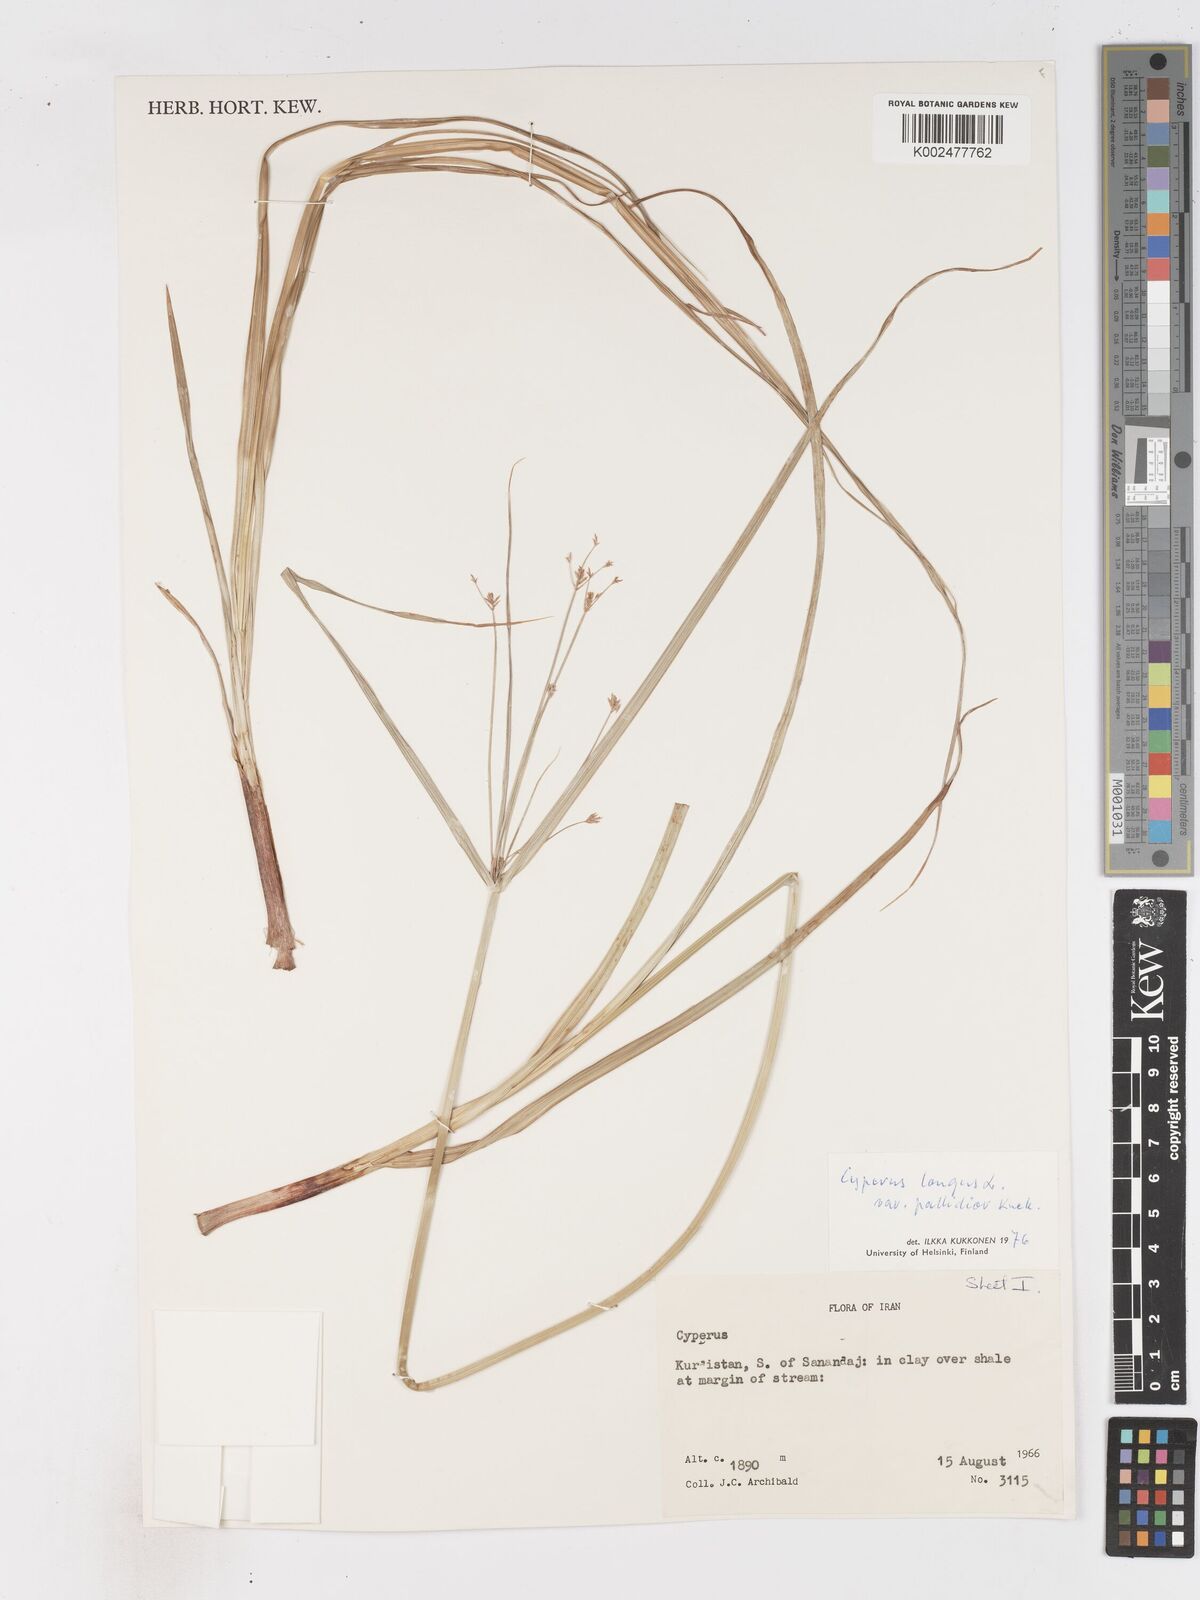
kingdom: Plantae
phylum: Tracheophyta
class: Liliopsida
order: Poales
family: Cyperaceae
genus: Cyperus
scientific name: Cyperus longus
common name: Galingale
